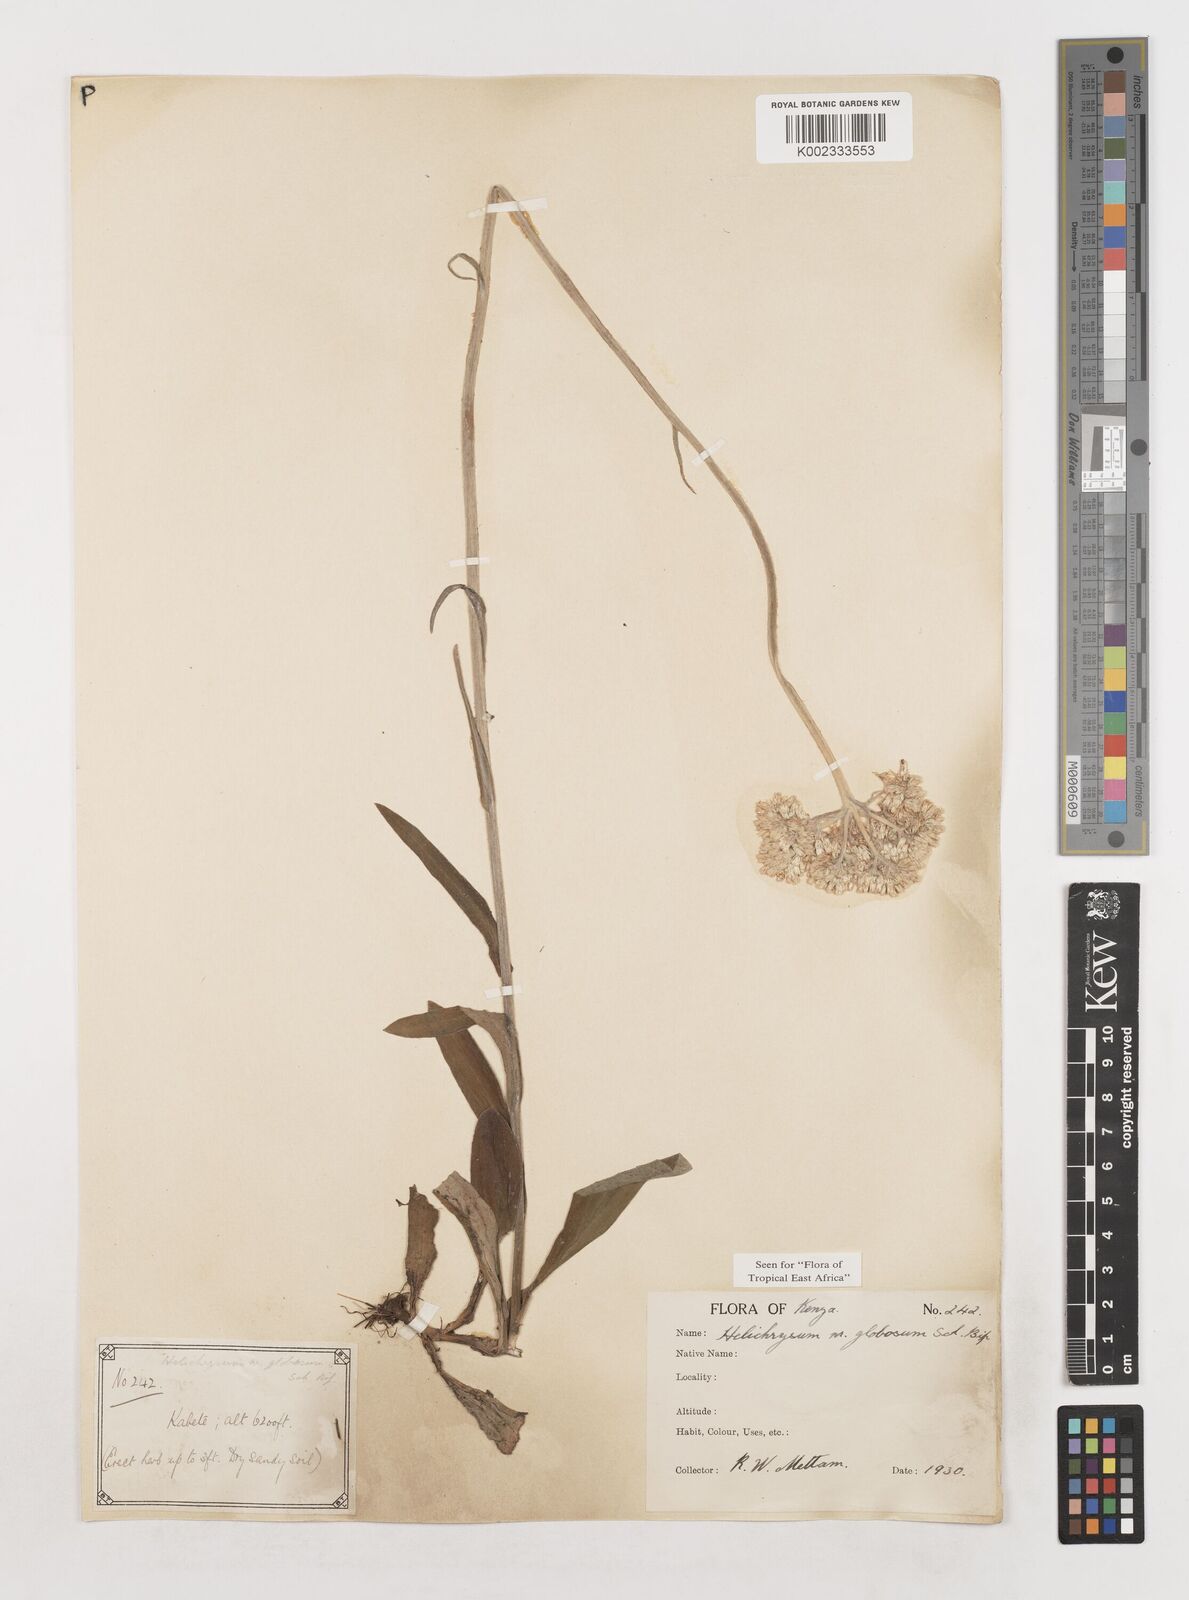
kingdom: Plantae
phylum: Tracheophyta
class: Magnoliopsida
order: Asterales
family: Asteraceae
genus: Helichrysum
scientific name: Helichrysum globosum
